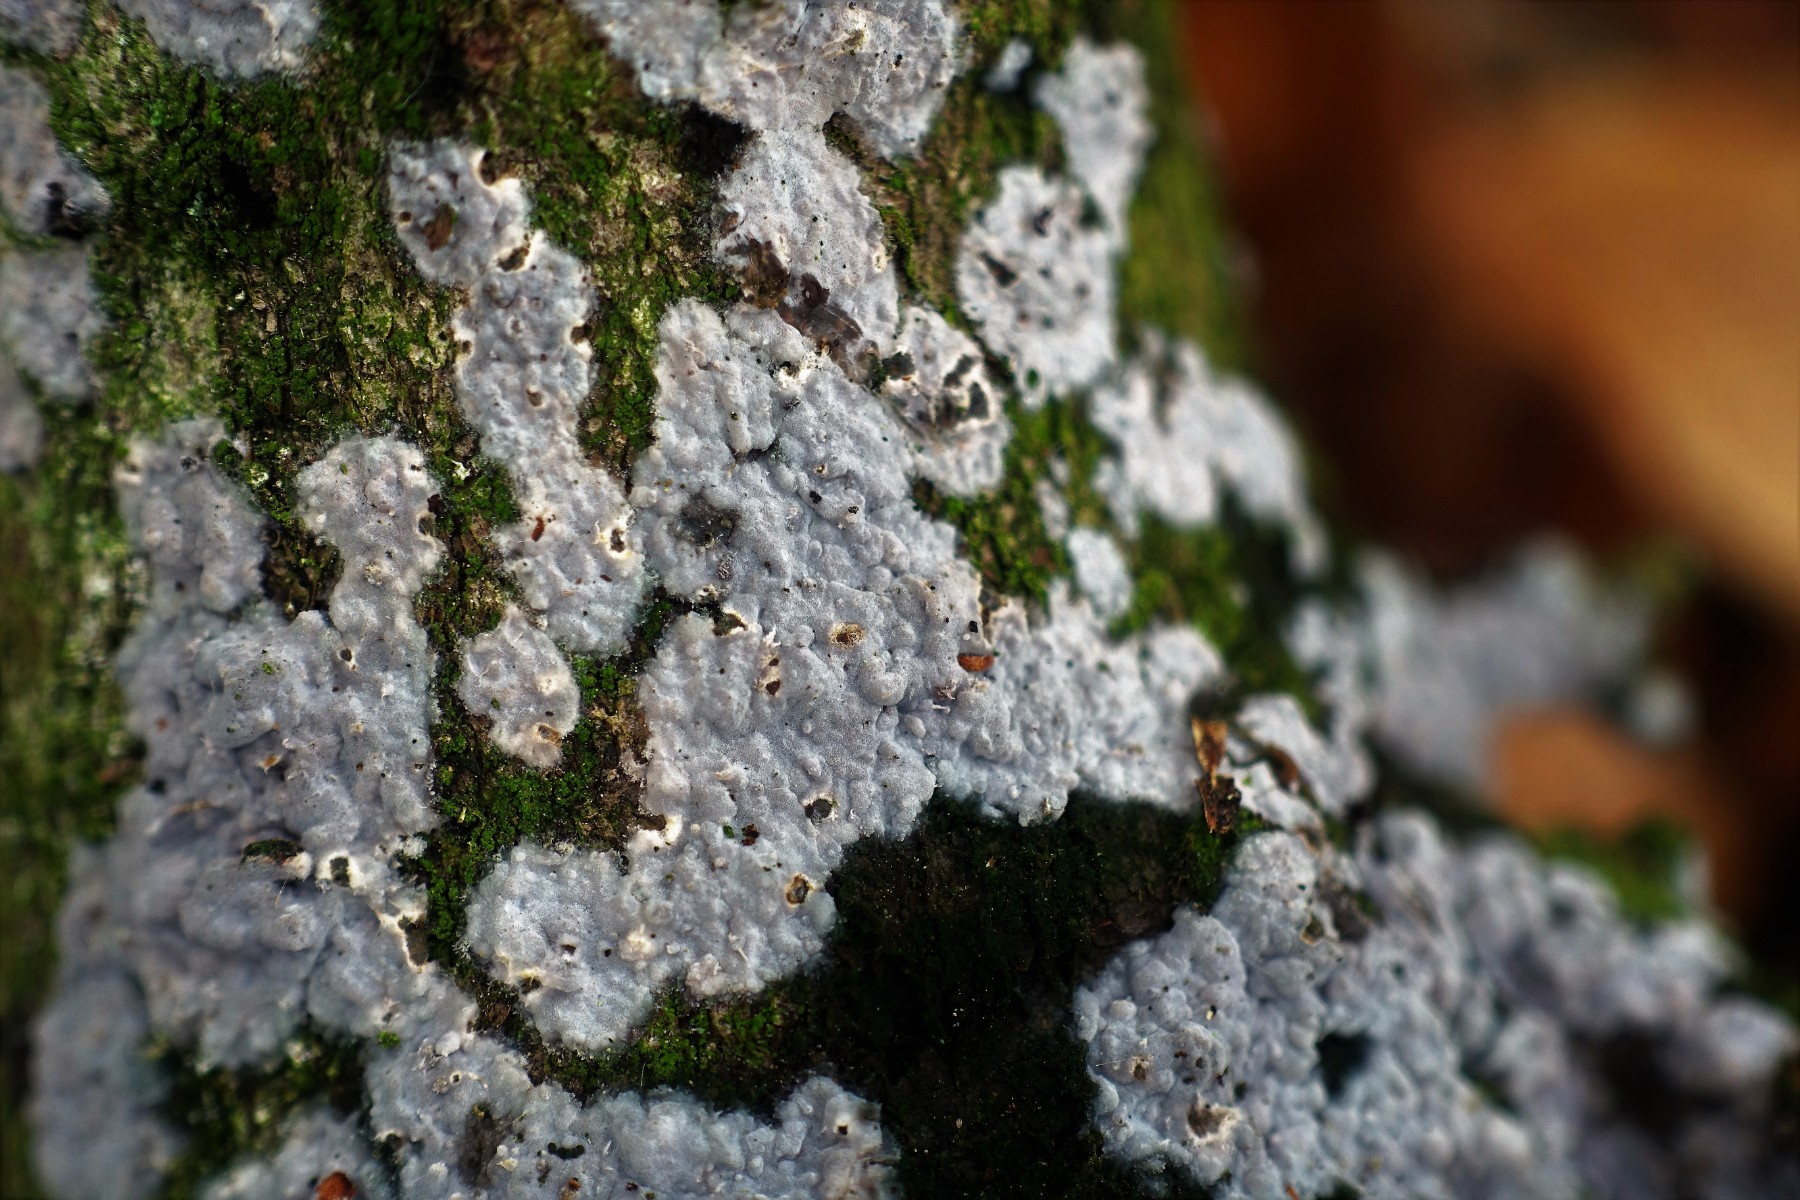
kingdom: Fungi
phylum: Basidiomycota
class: Agaricomycetes
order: Sebacinales
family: Sebacinaceae
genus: Sebacina
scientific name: Sebacina grisea
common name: blågrå bævrehinde
